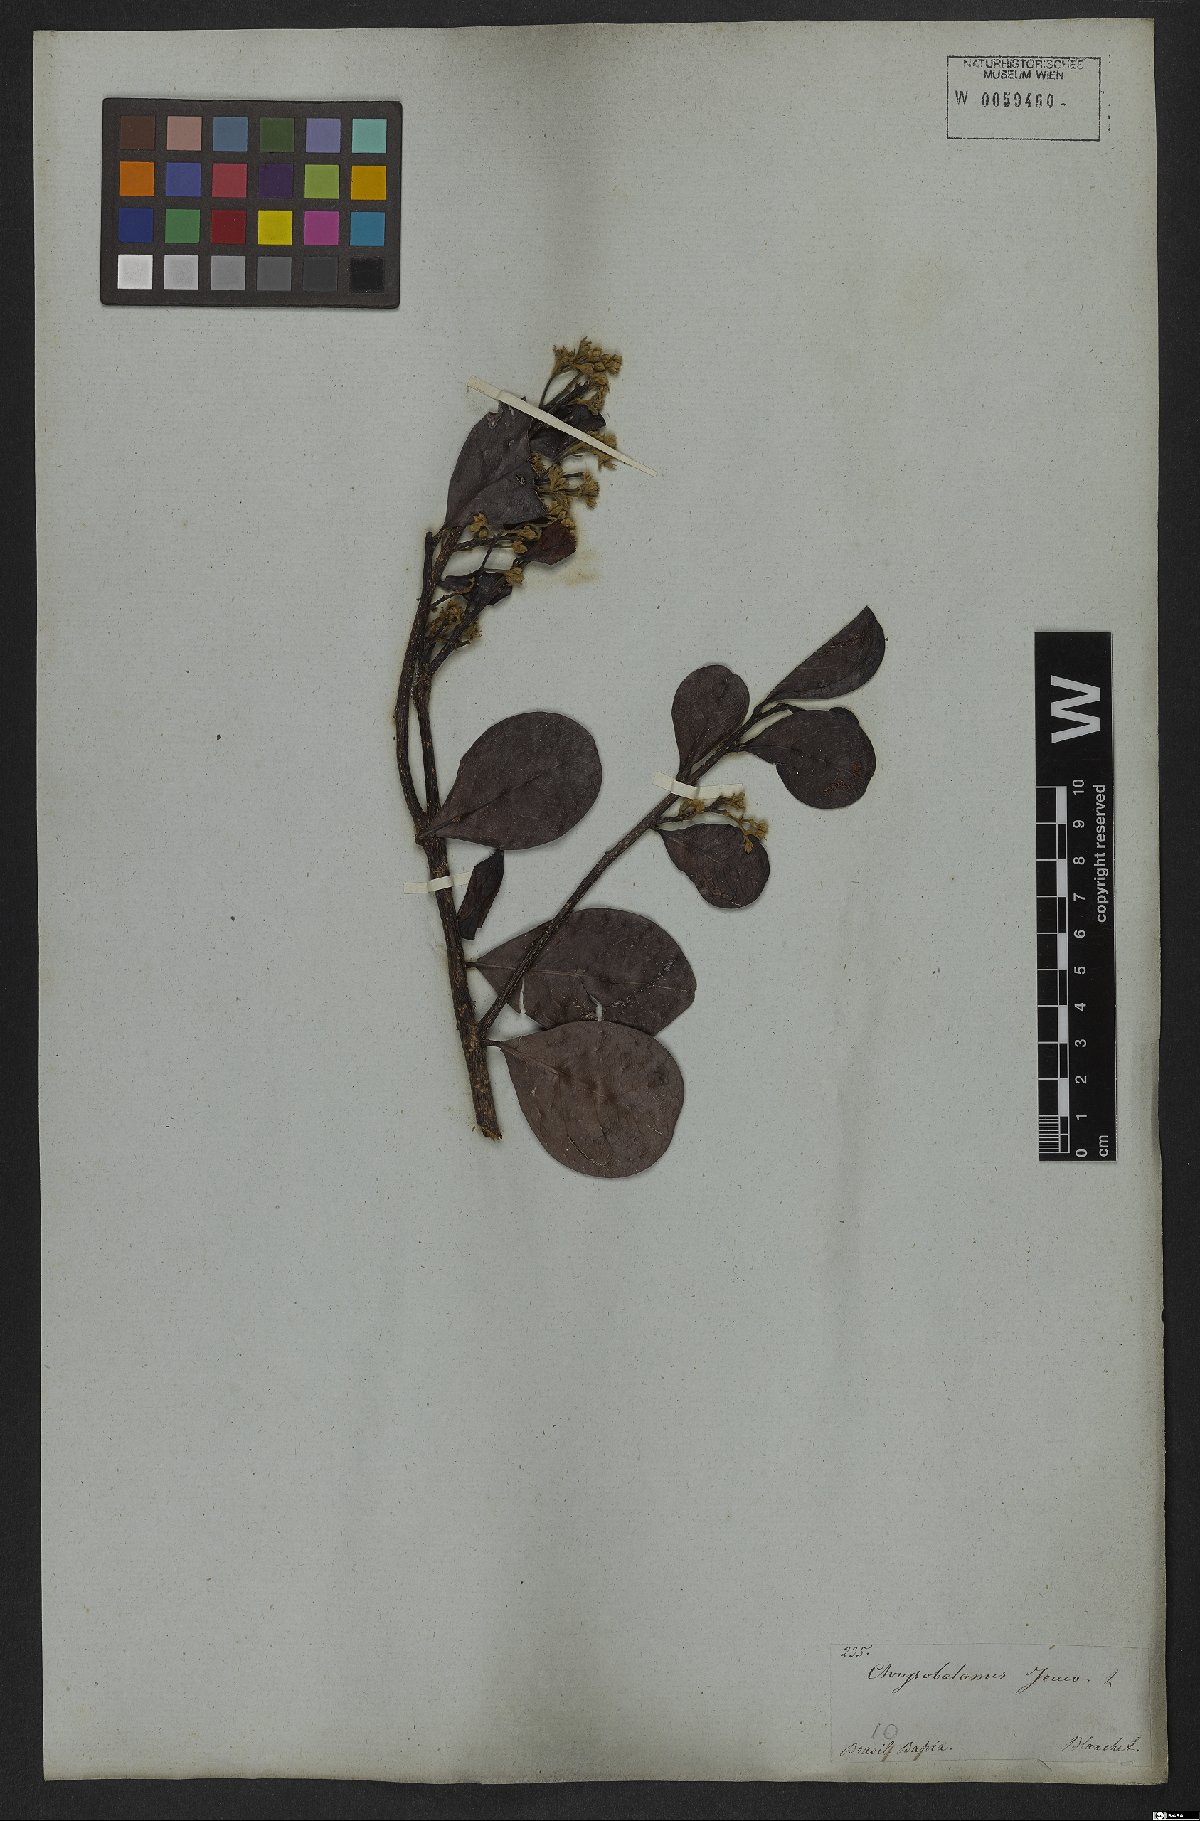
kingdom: Plantae
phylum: Tracheophyta
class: Magnoliopsida
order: Malpighiales
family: Chrysobalanaceae
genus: Chrysobalanus
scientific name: Chrysobalanus icaco
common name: Coco plum
